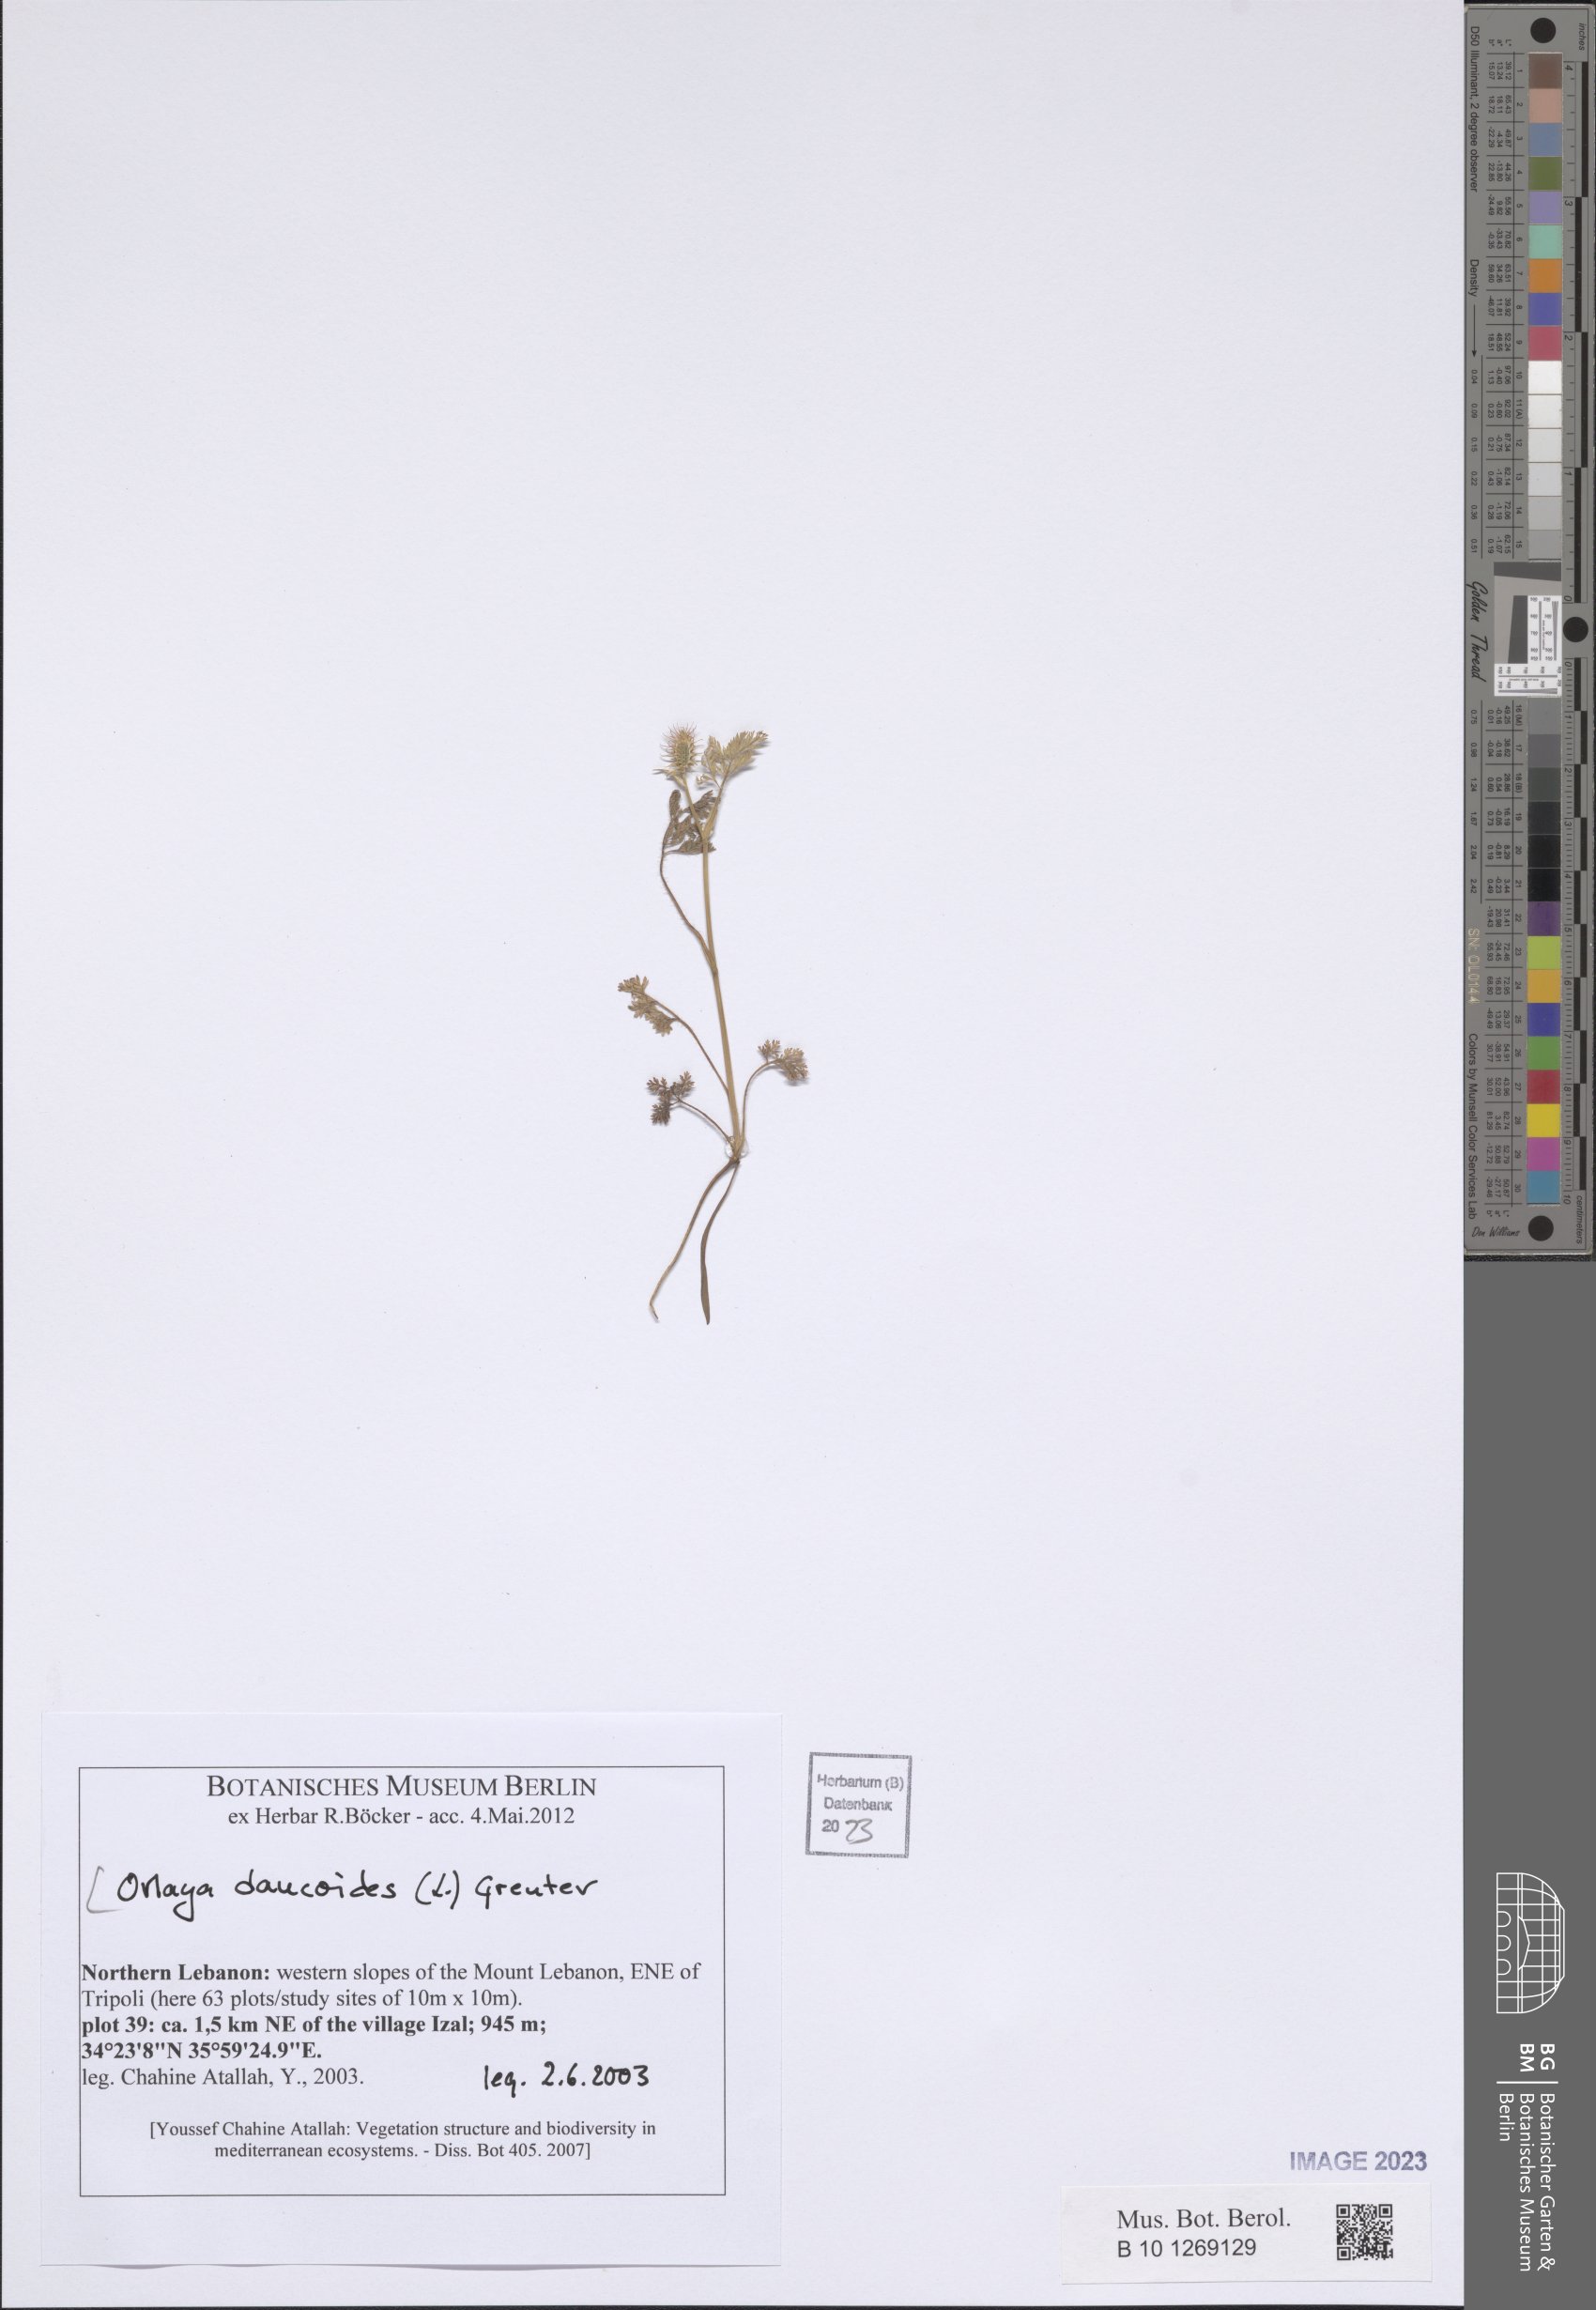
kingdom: Plantae
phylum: Tracheophyta
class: Magnoliopsida
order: Apiales
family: Apiaceae
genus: Orlaya
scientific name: Orlaya daucoides
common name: Flat-fruit orlaya
